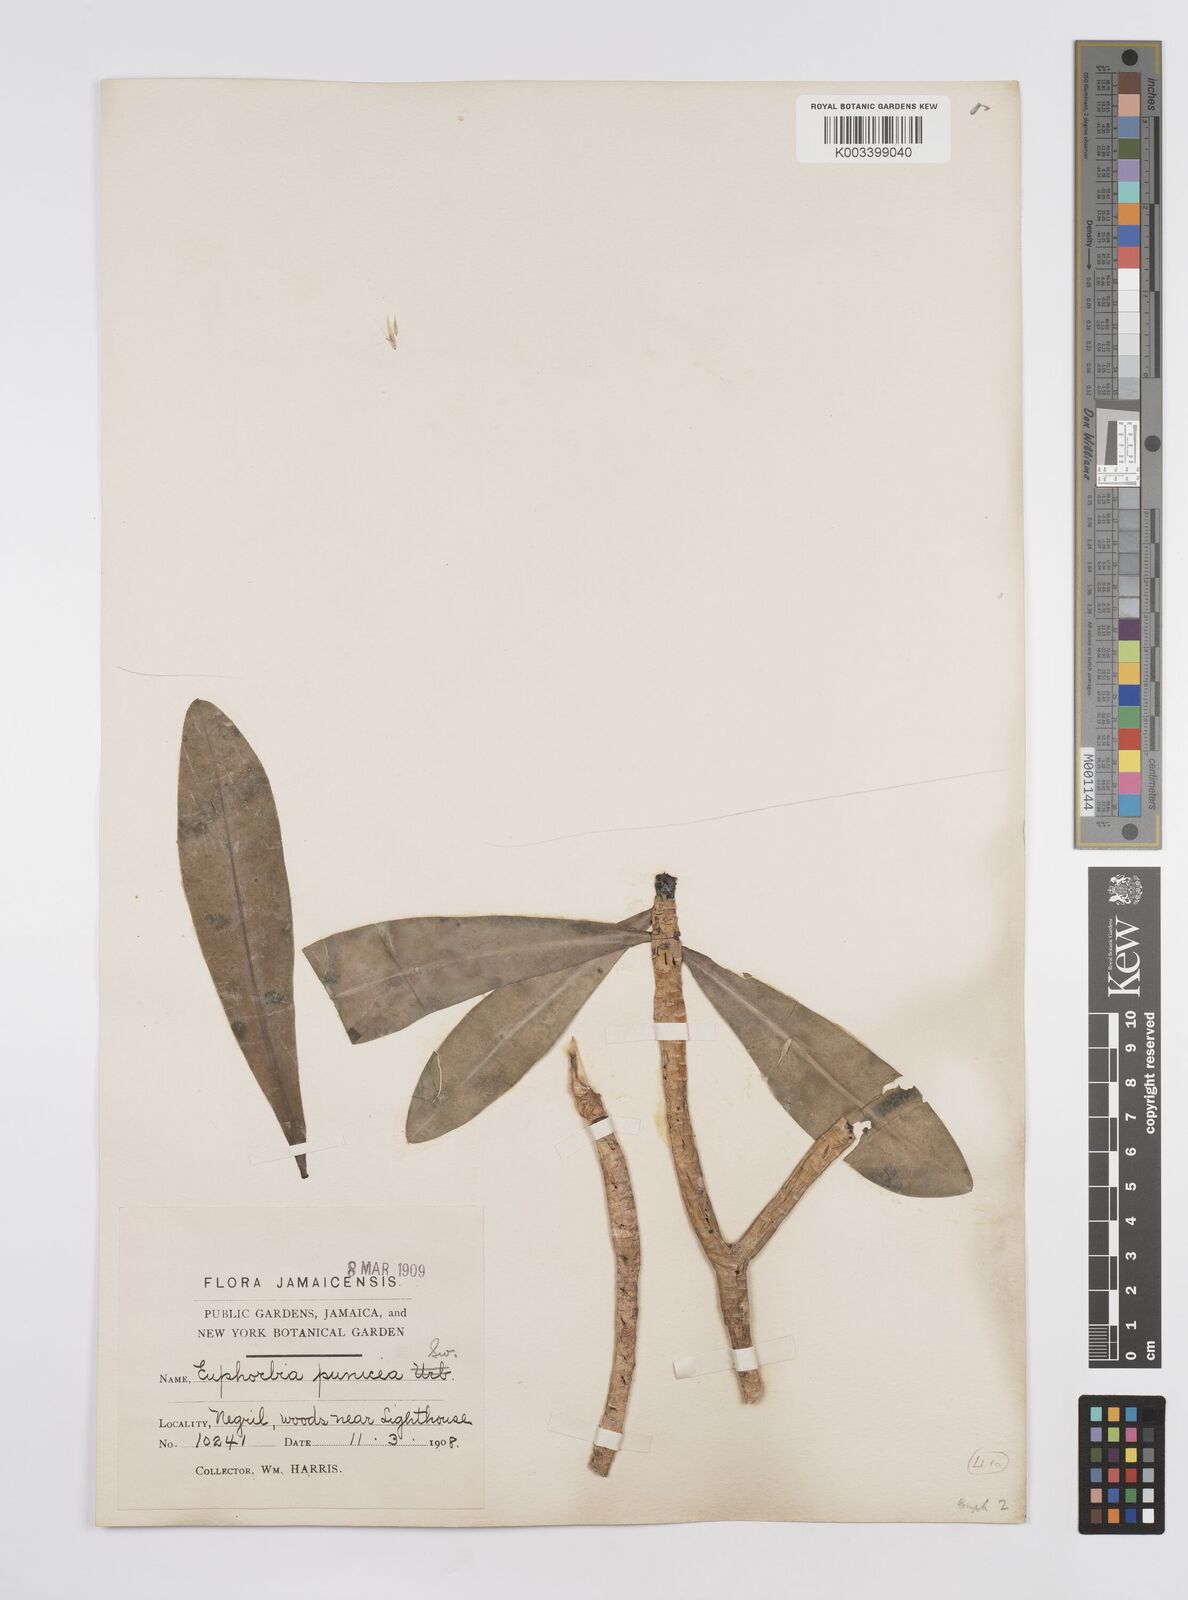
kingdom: Plantae
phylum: Tracheophyta
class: Magnoliopsida
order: Malpighiales
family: Euphorbiaceae
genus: Euphorbia
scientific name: Euphorbia punicea
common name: Vegetable-leather
